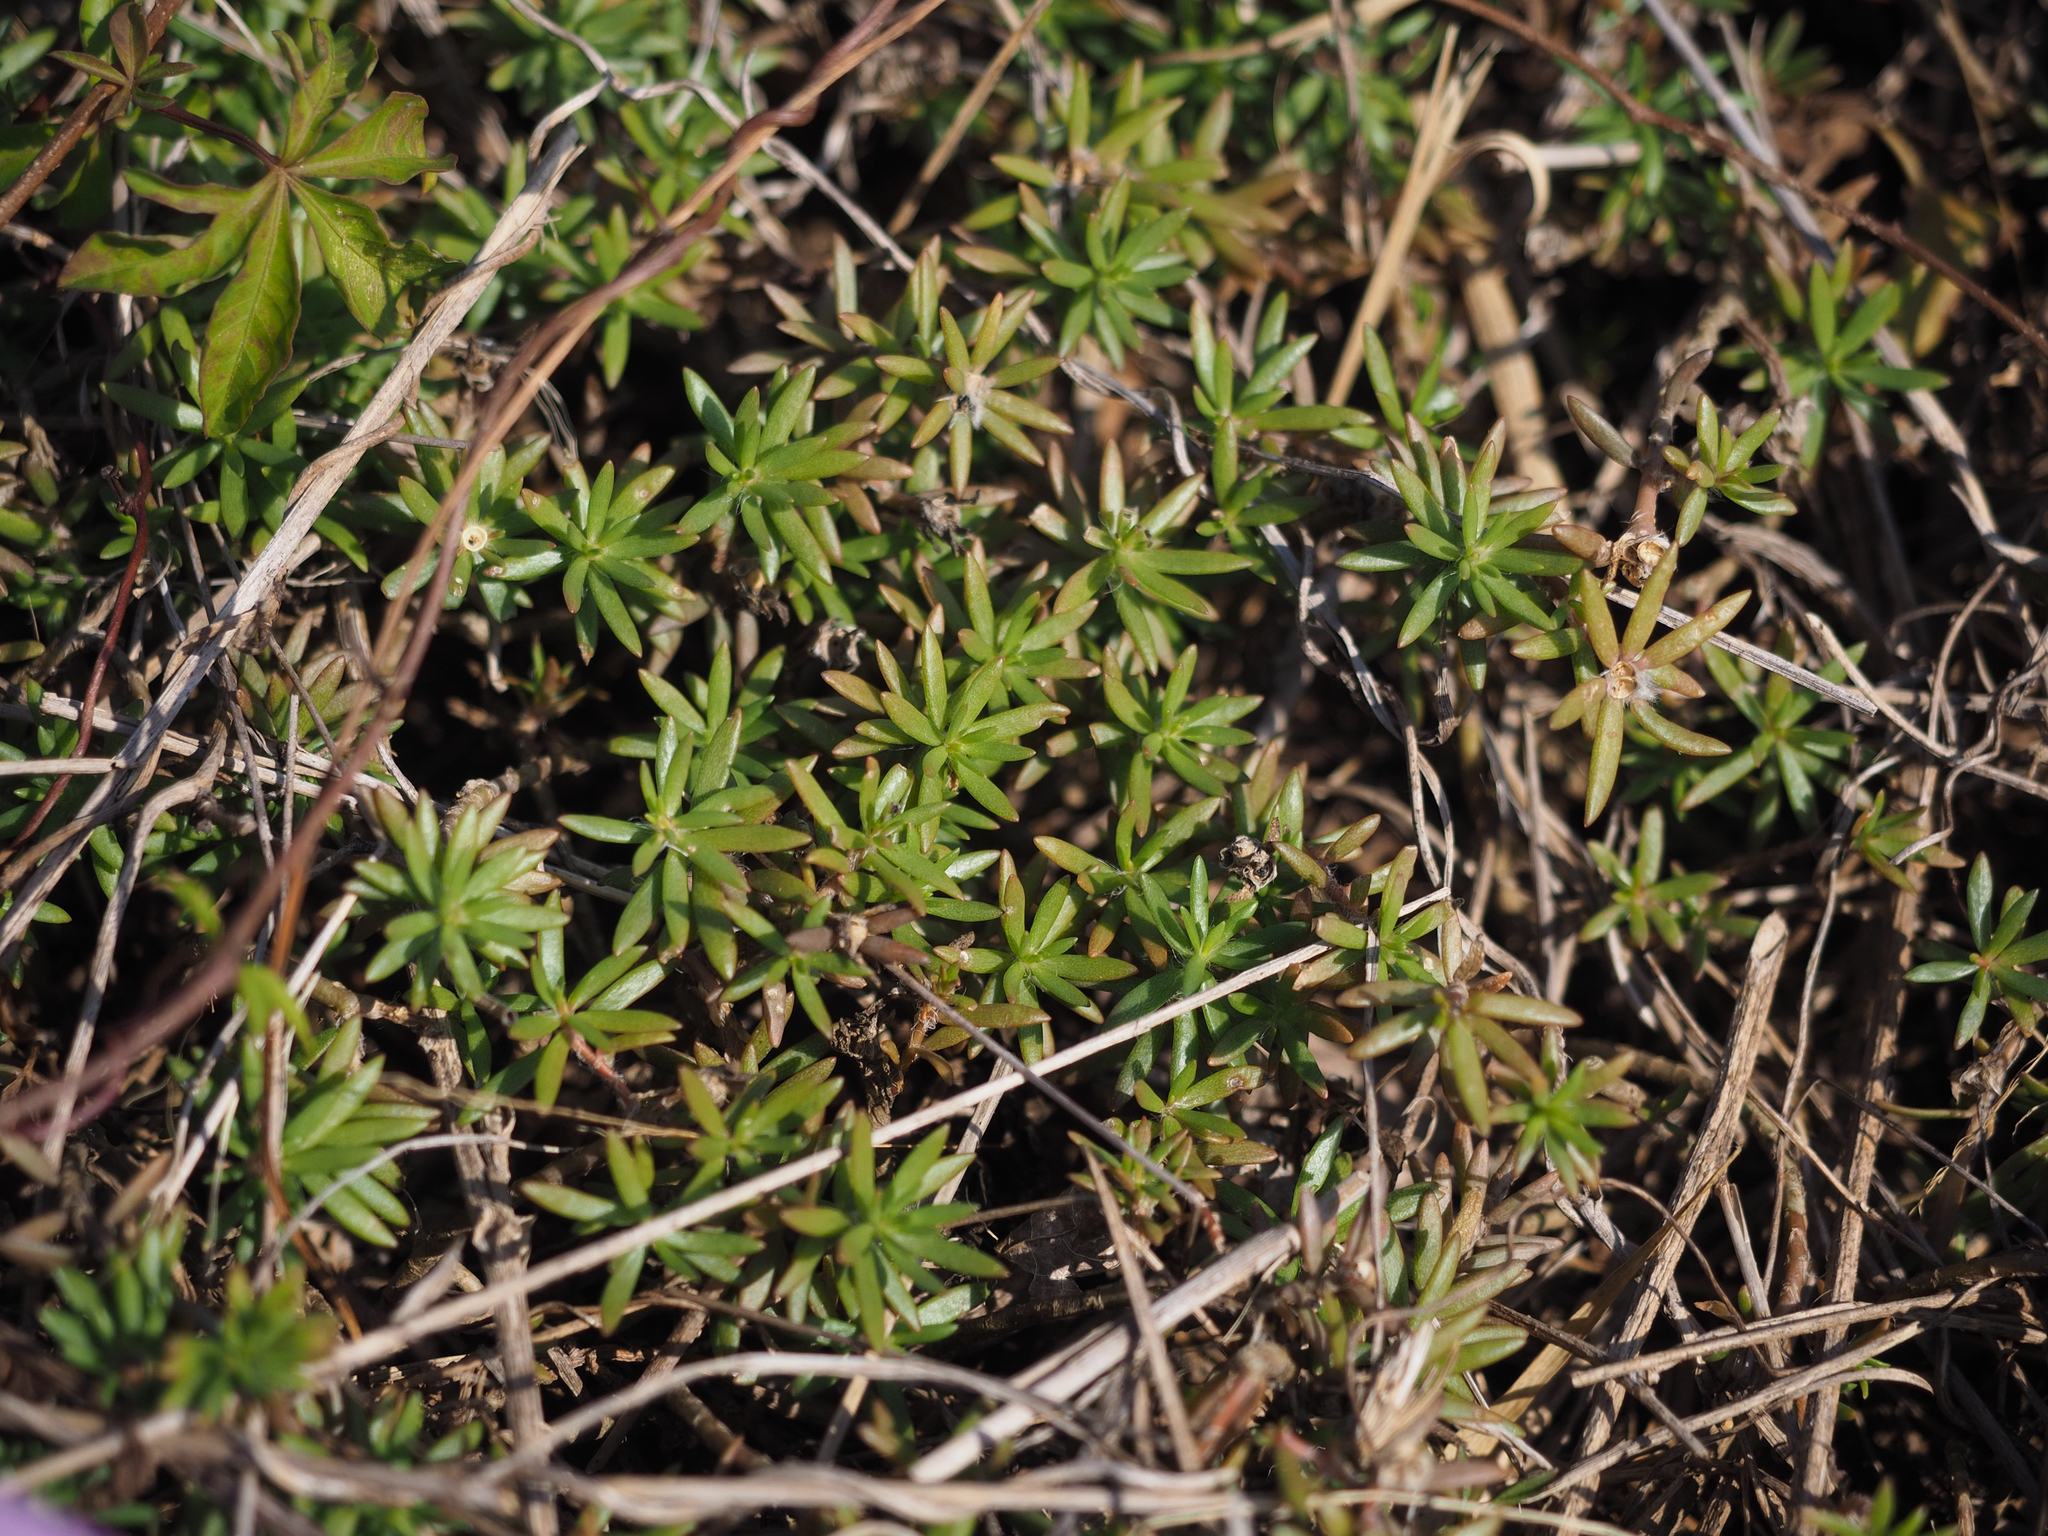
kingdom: Plantae
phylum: Tracheophyta
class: Magnoliopsida
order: Caryophyllales
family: Portulacaceae
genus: Portulaca
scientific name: Portulaca pilosa
